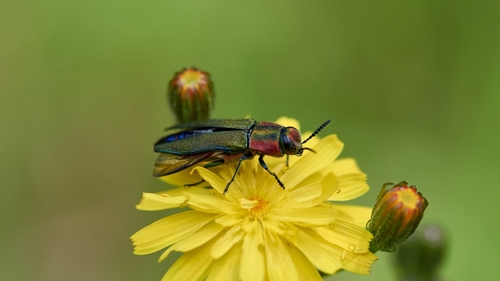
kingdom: Animalia
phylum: Arthropoda
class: Insecta
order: Coleoptera
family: Buprestidae
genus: Anthaxia
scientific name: Anthaxia hungarica
